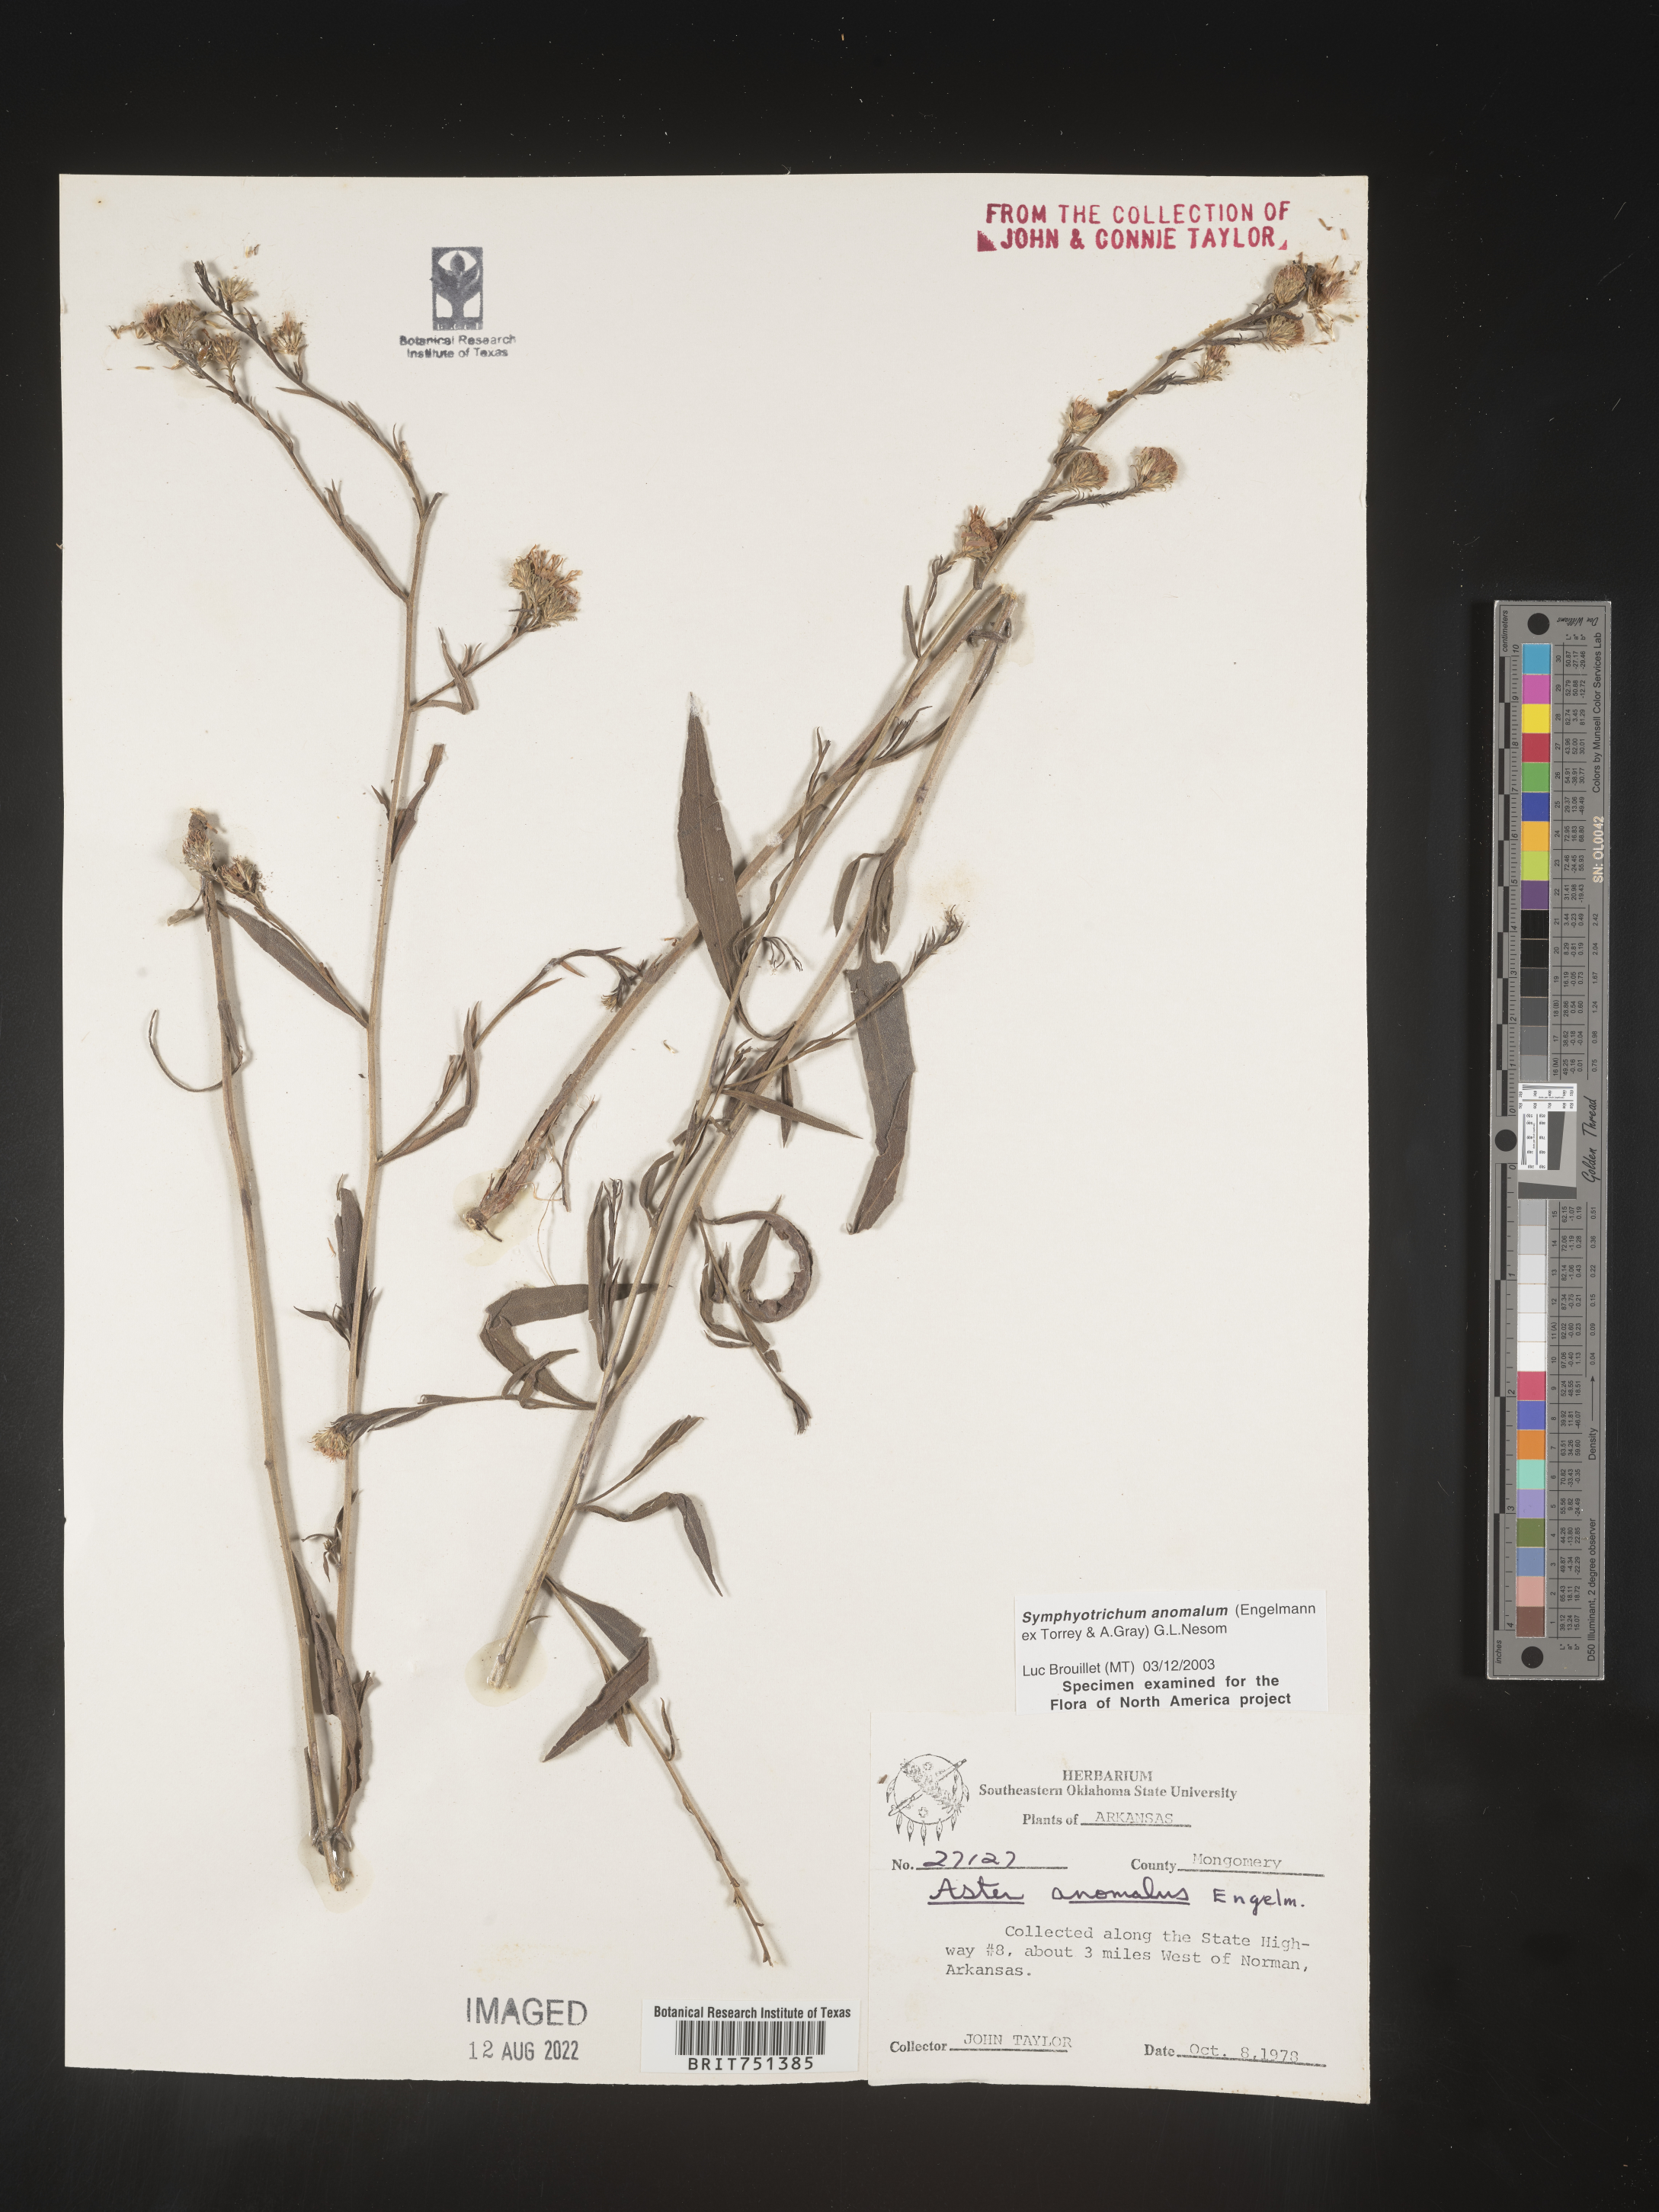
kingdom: Plantae
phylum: Tracheophyta
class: Magnoliopsida
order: Asterales
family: Asteraceae
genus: Symphyotrichum
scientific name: Symphyotrichum anomalum
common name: Many-ray aster
